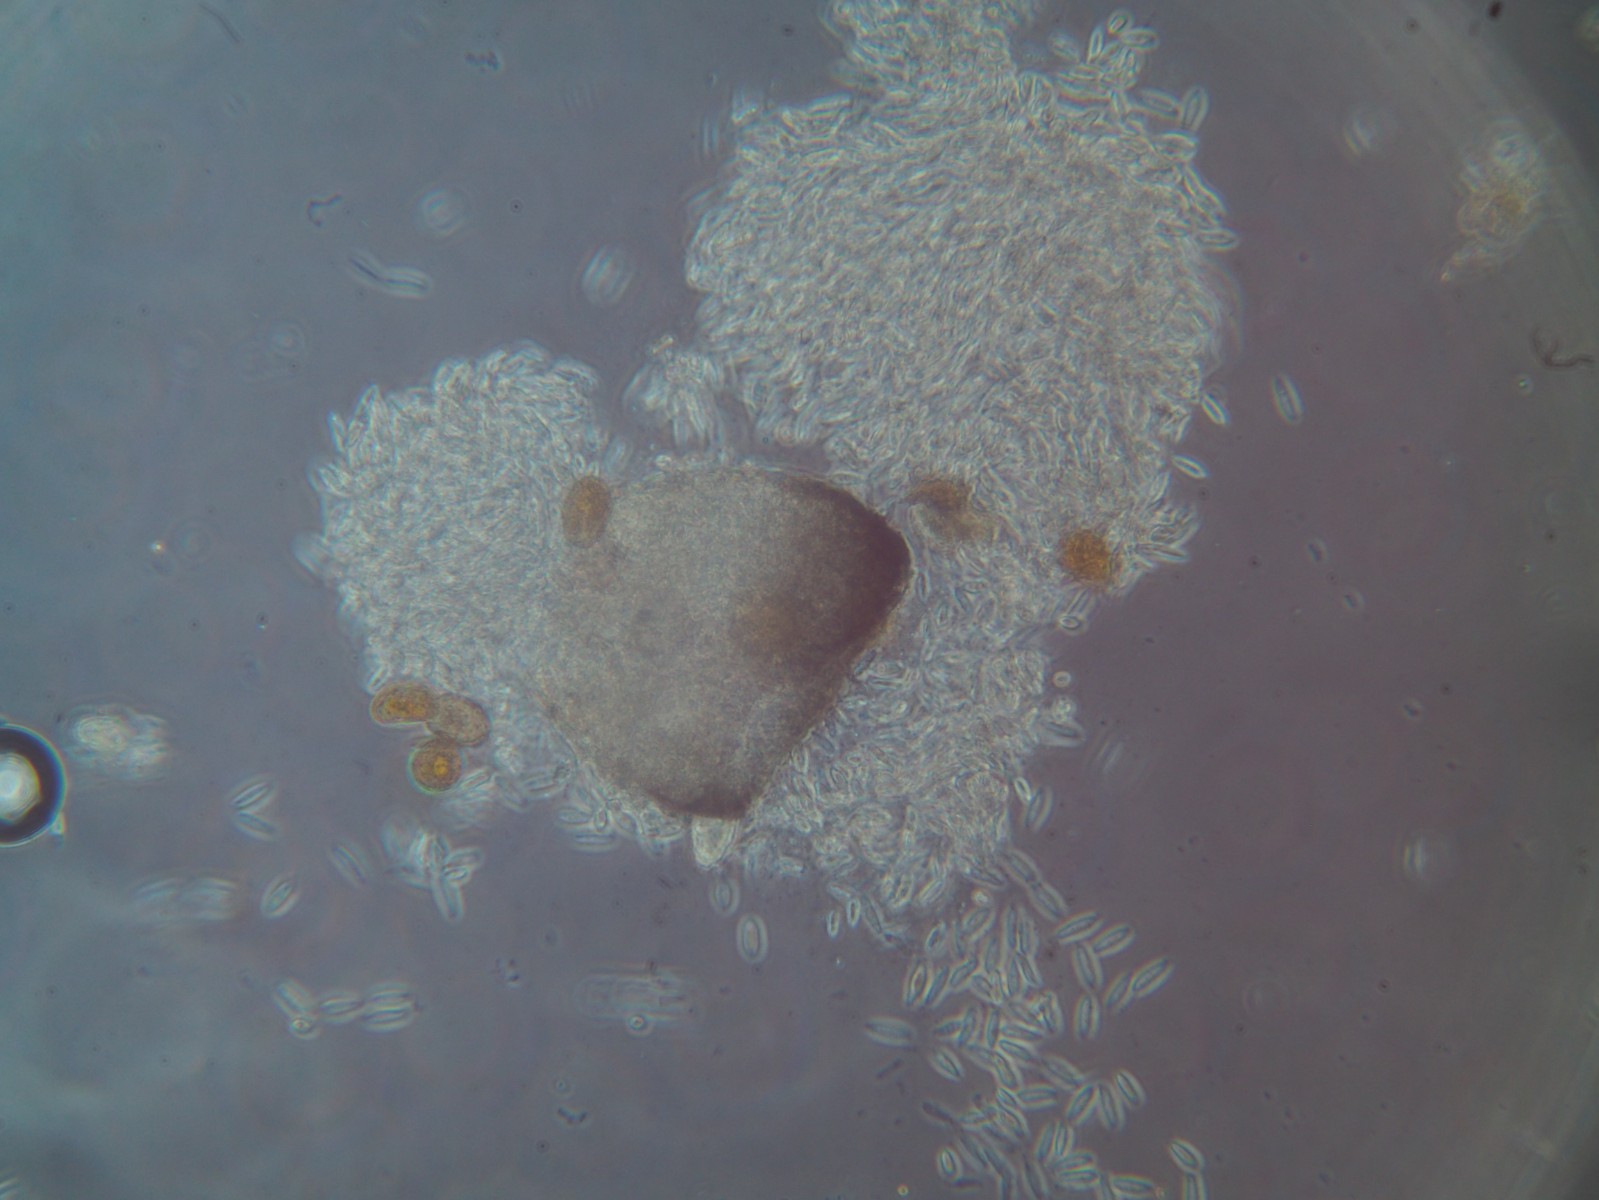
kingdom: Fungi
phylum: Ascomycota
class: Dothideomycetes
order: Pleosporales
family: Phaeosphaeriaceae
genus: Sphaerellopsis
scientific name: Sphaerellopsis filum
